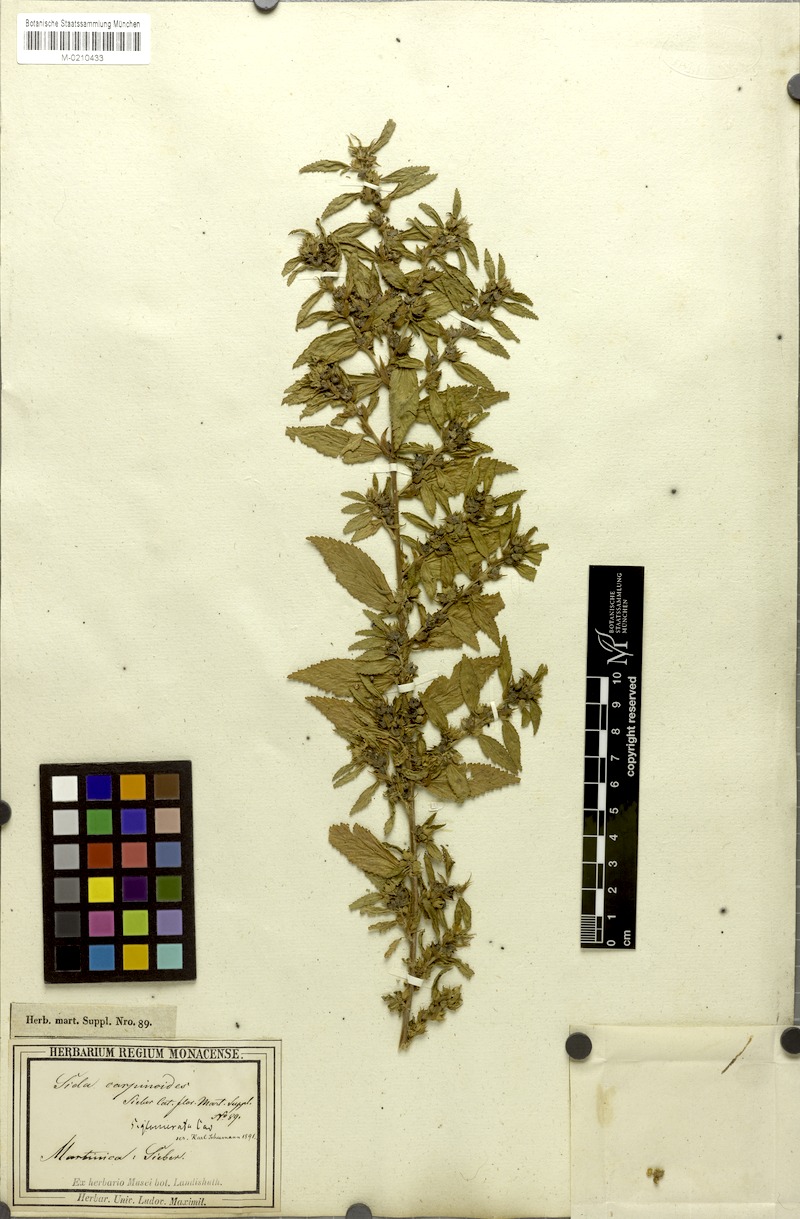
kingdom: Plantae
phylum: Tracheophyta
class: Magnoliopsida
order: Malvales
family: Malvaceae
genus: Sida
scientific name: Sida glomerata
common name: Clustered fanpetals
